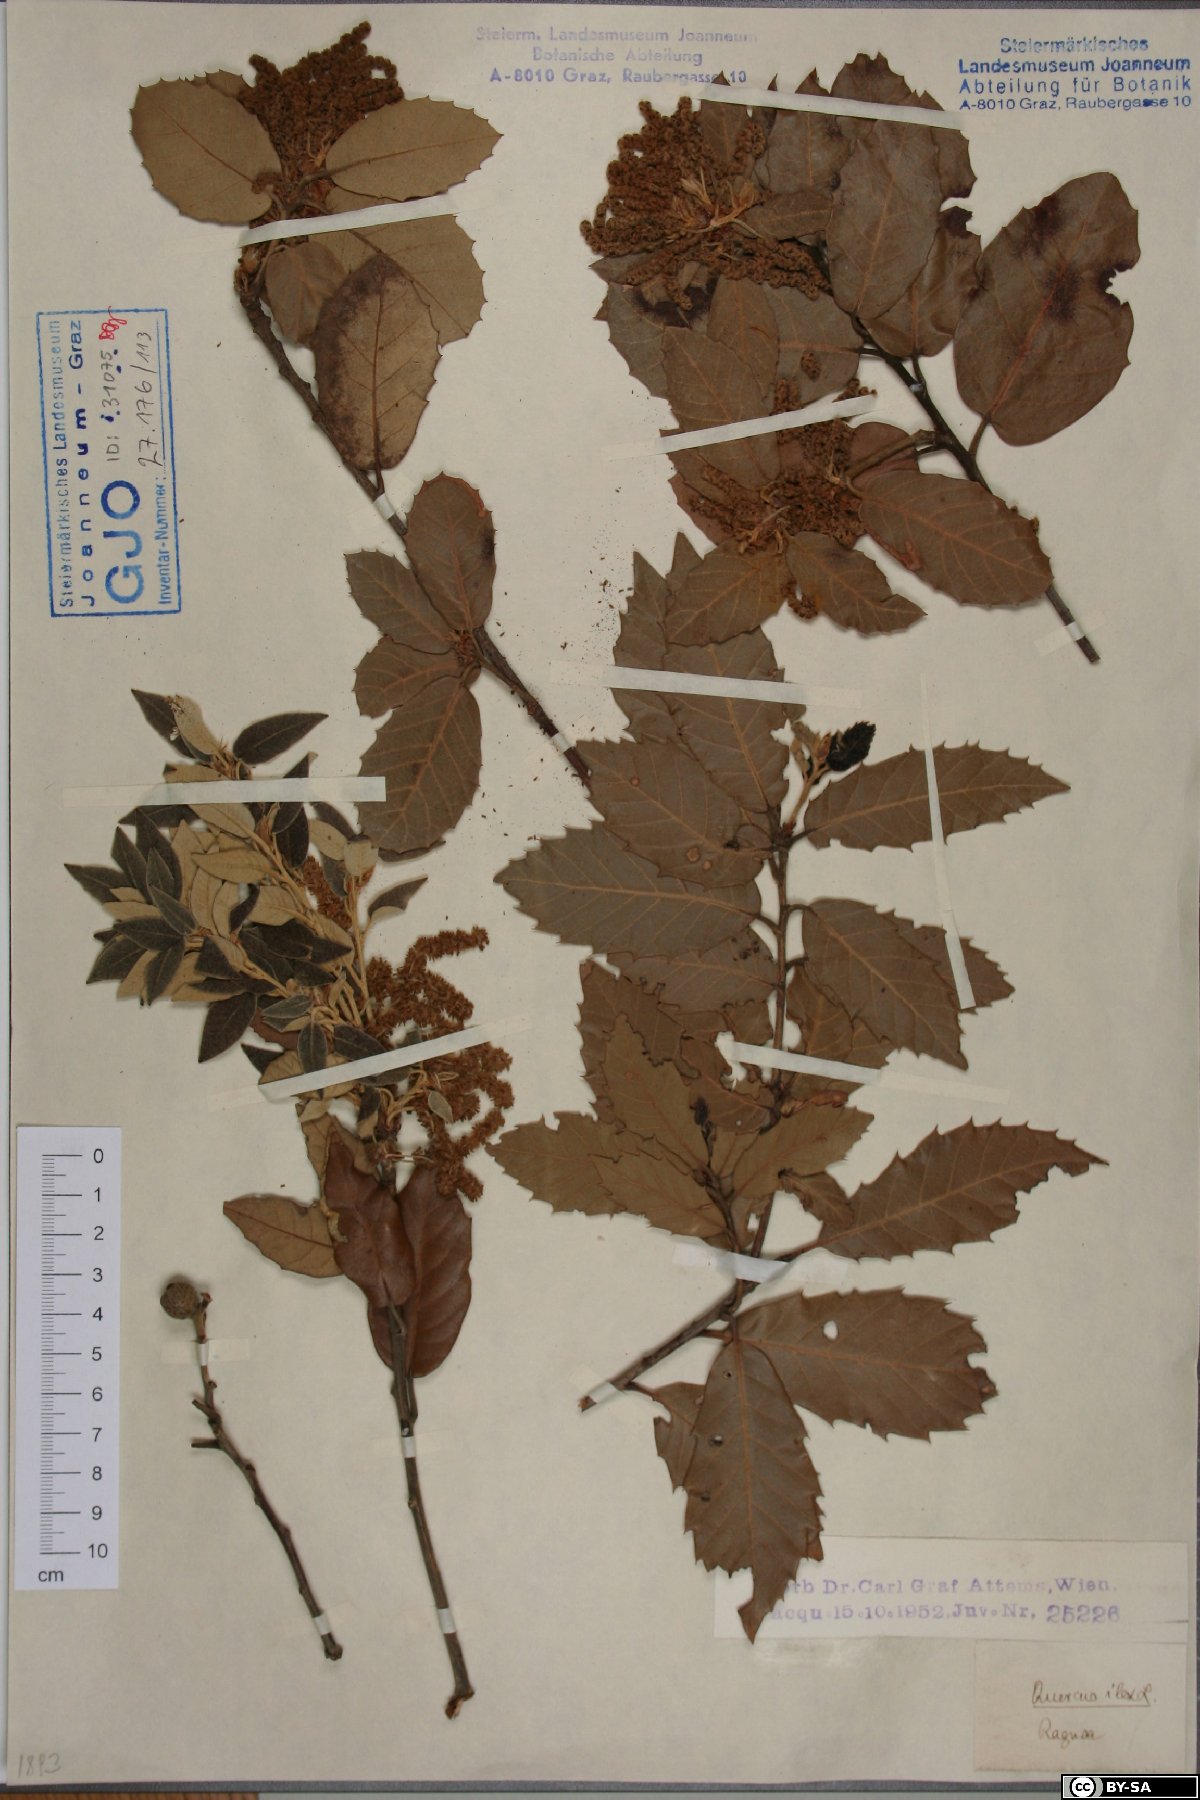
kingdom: Plantae
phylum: Tracheophyta
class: Magnoliopsida
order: Fagales
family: Fagaceae
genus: Quercus
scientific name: Quercus ilex
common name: Evergreen oak
